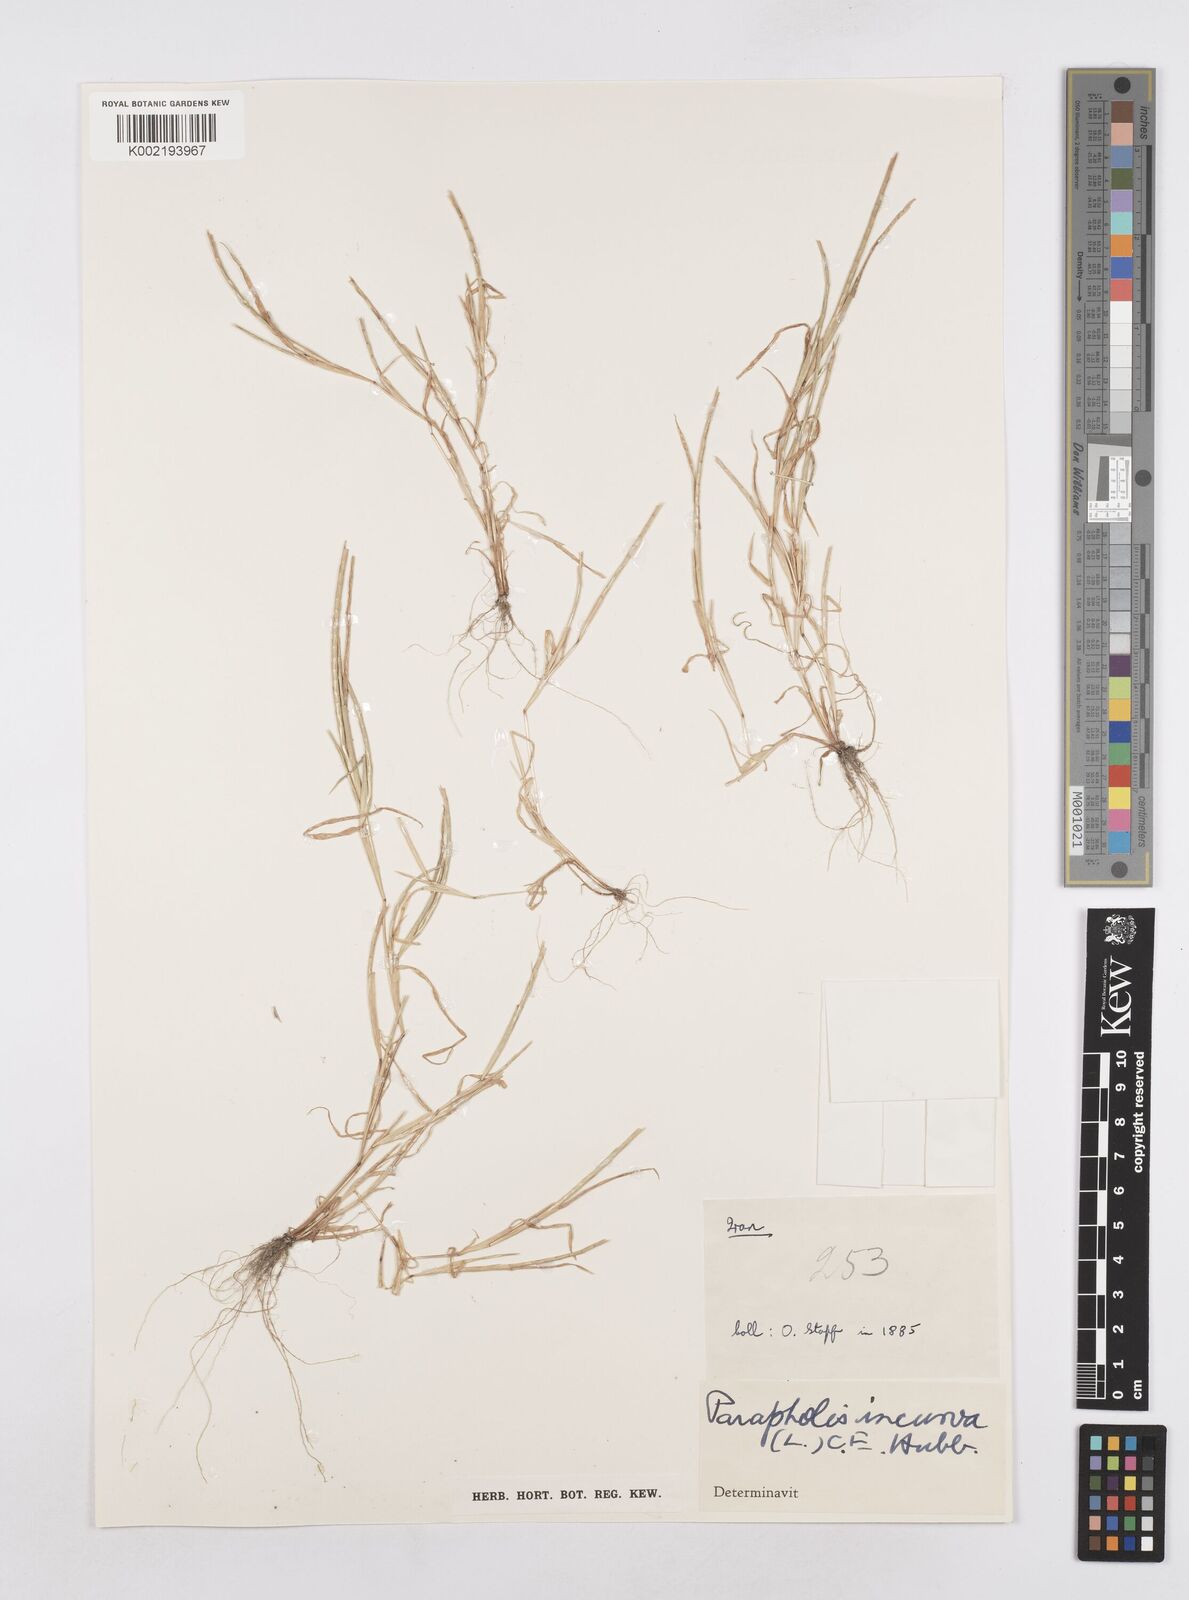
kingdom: Plantae
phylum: Tracheophyta
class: Liliopsida
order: Poales
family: Poaceae
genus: Parapholis
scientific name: Parapholis incurva
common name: Curved sicklegrass
